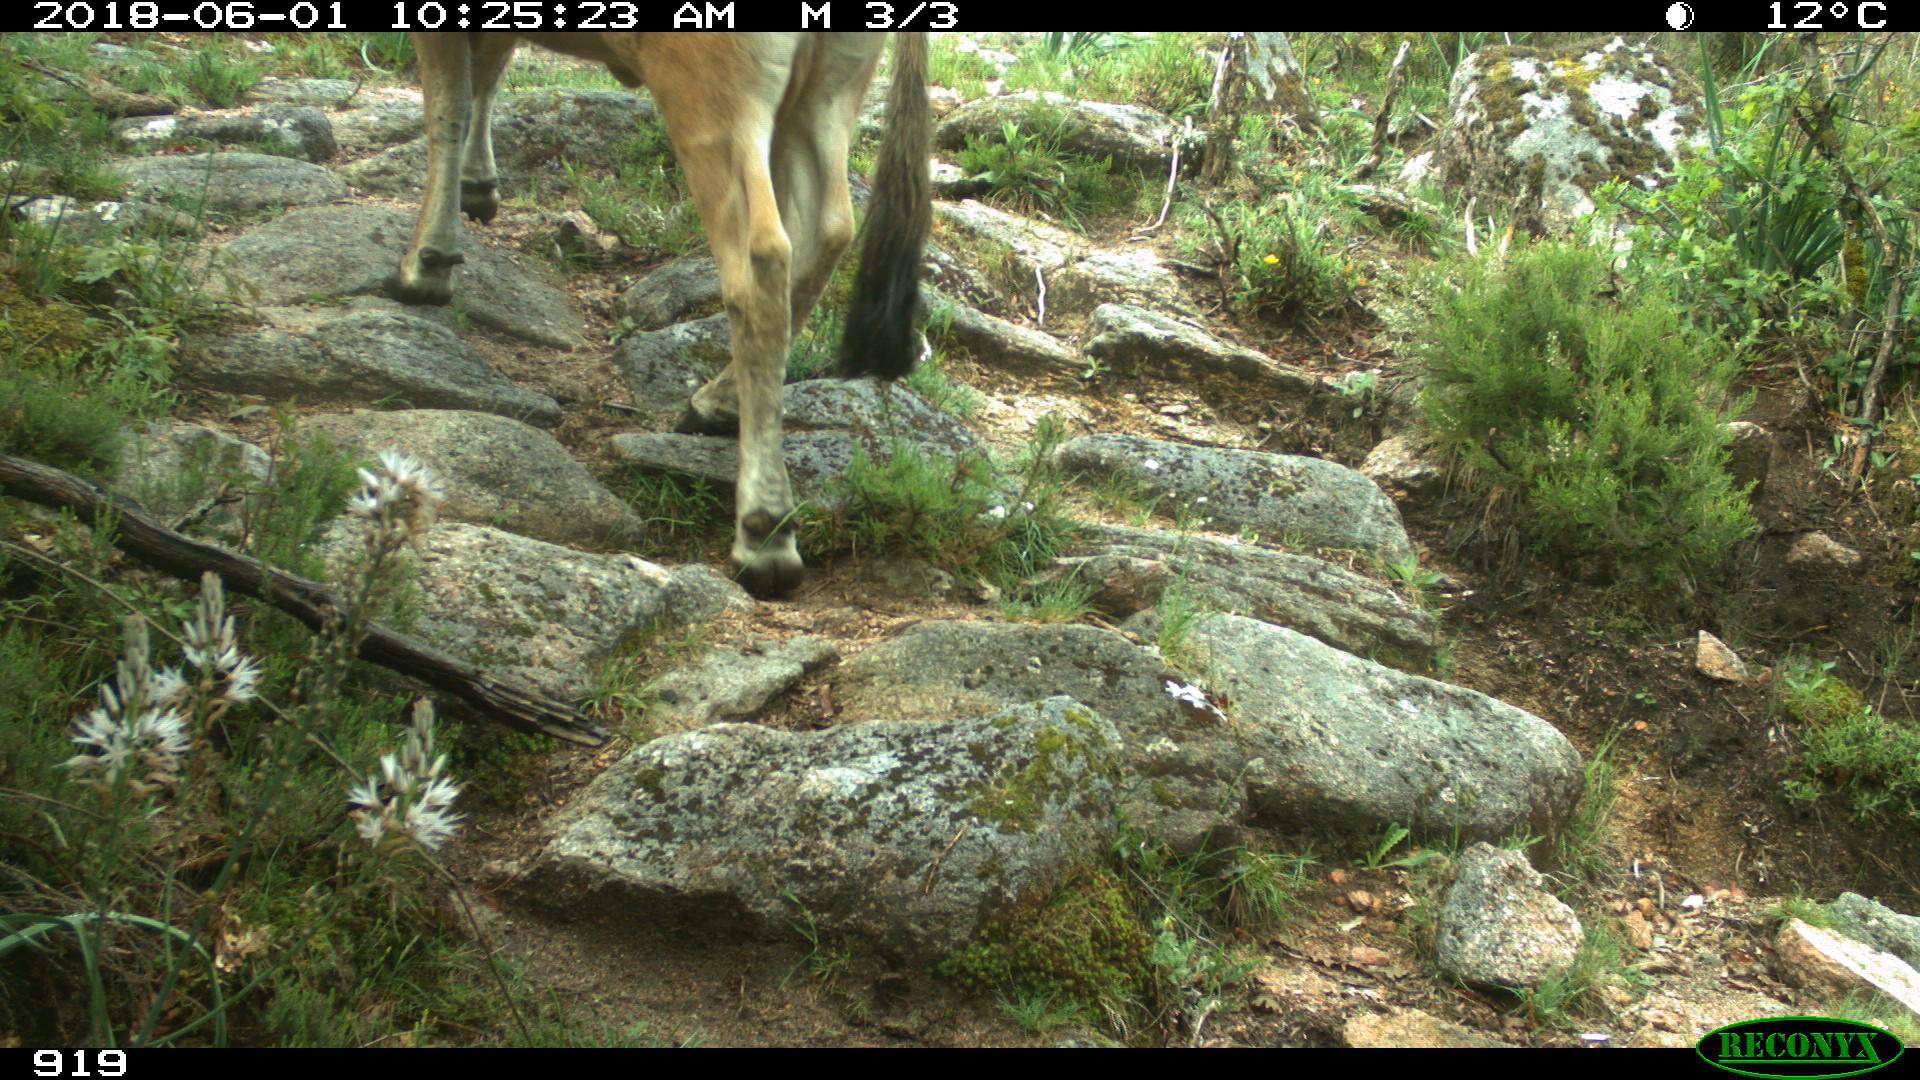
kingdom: Animalia
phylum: Chordata
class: Mammalia
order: Artiodactyla
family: Bovidae
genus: Bos
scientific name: Bos taurus
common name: Domesticated cattle
